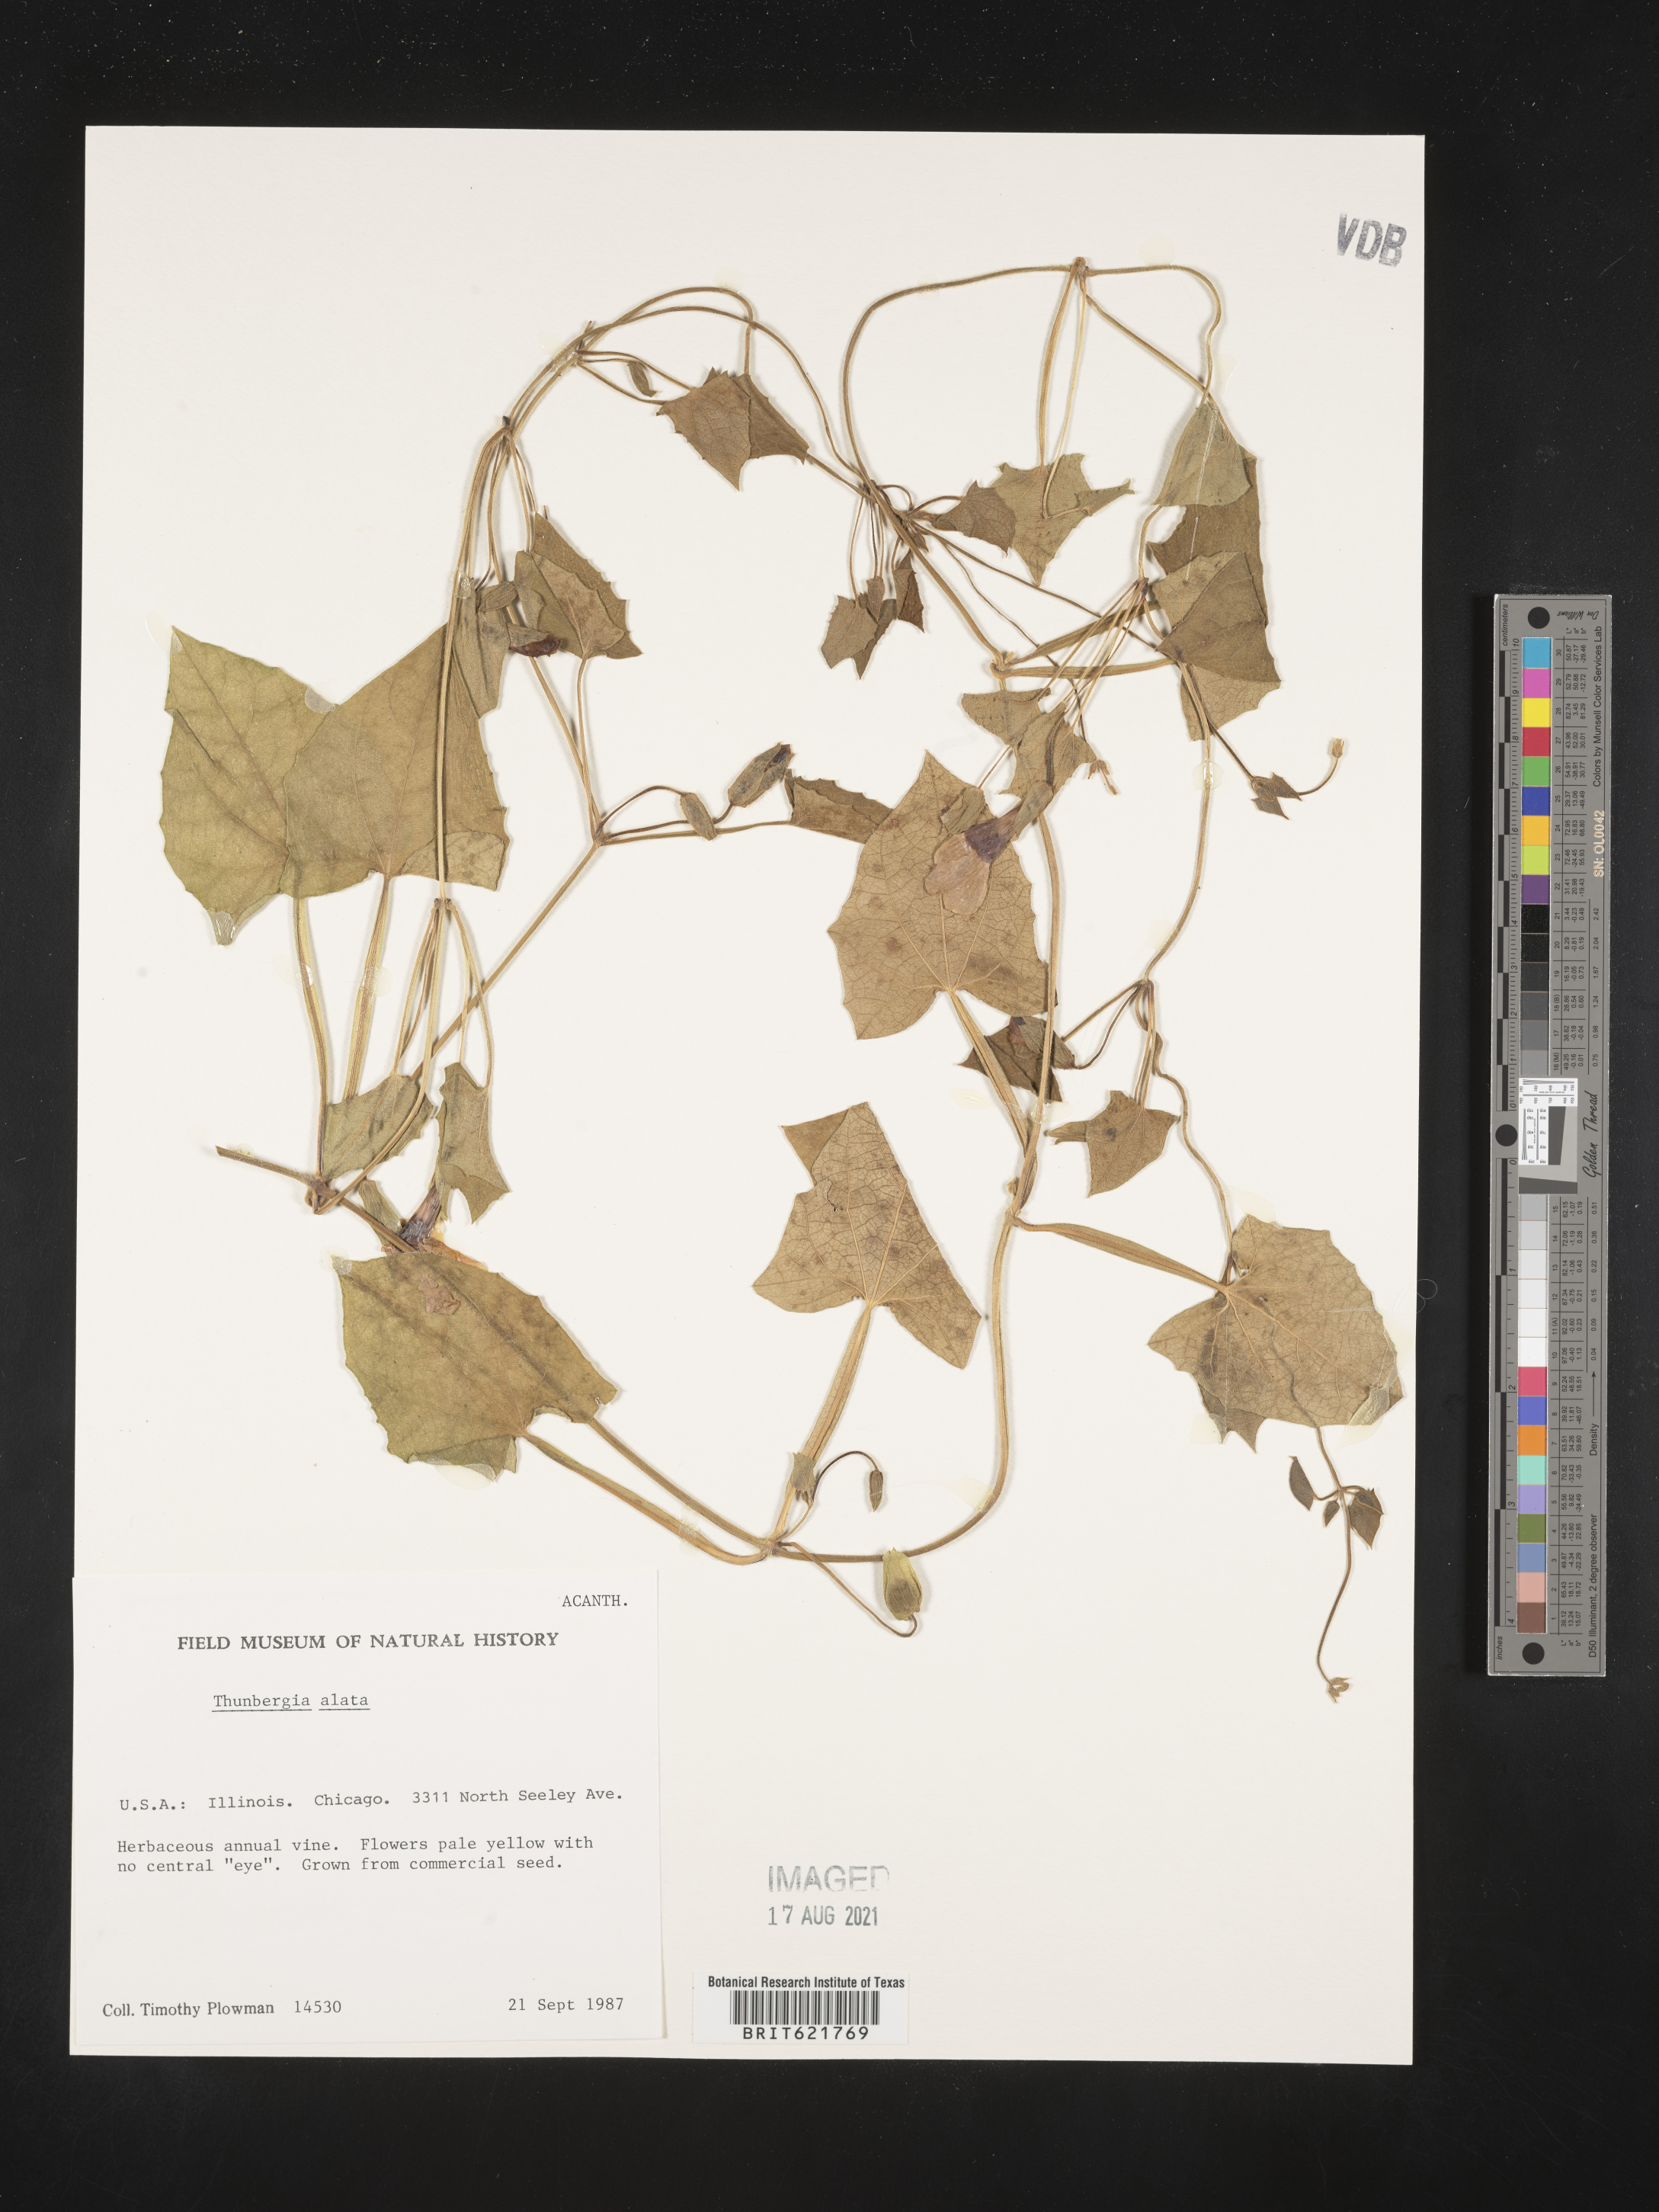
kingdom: Plantae
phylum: Tracheophyta
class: Magnoliopsida
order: Lamiales
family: Acanthaceae
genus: Thunbergia
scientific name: Thunbergia alata
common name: Blackeyed susan vine
